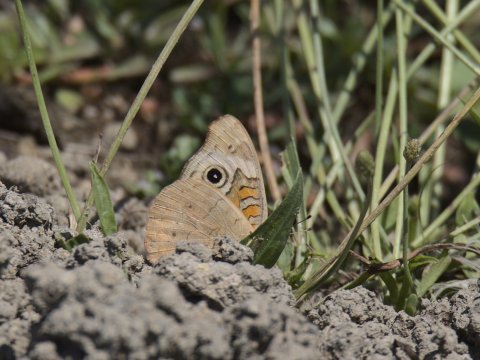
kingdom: Animalia
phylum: Arthropoda
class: Insecta
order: Lepidoptera
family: Nymphalidae
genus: Junonia
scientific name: Junonia
